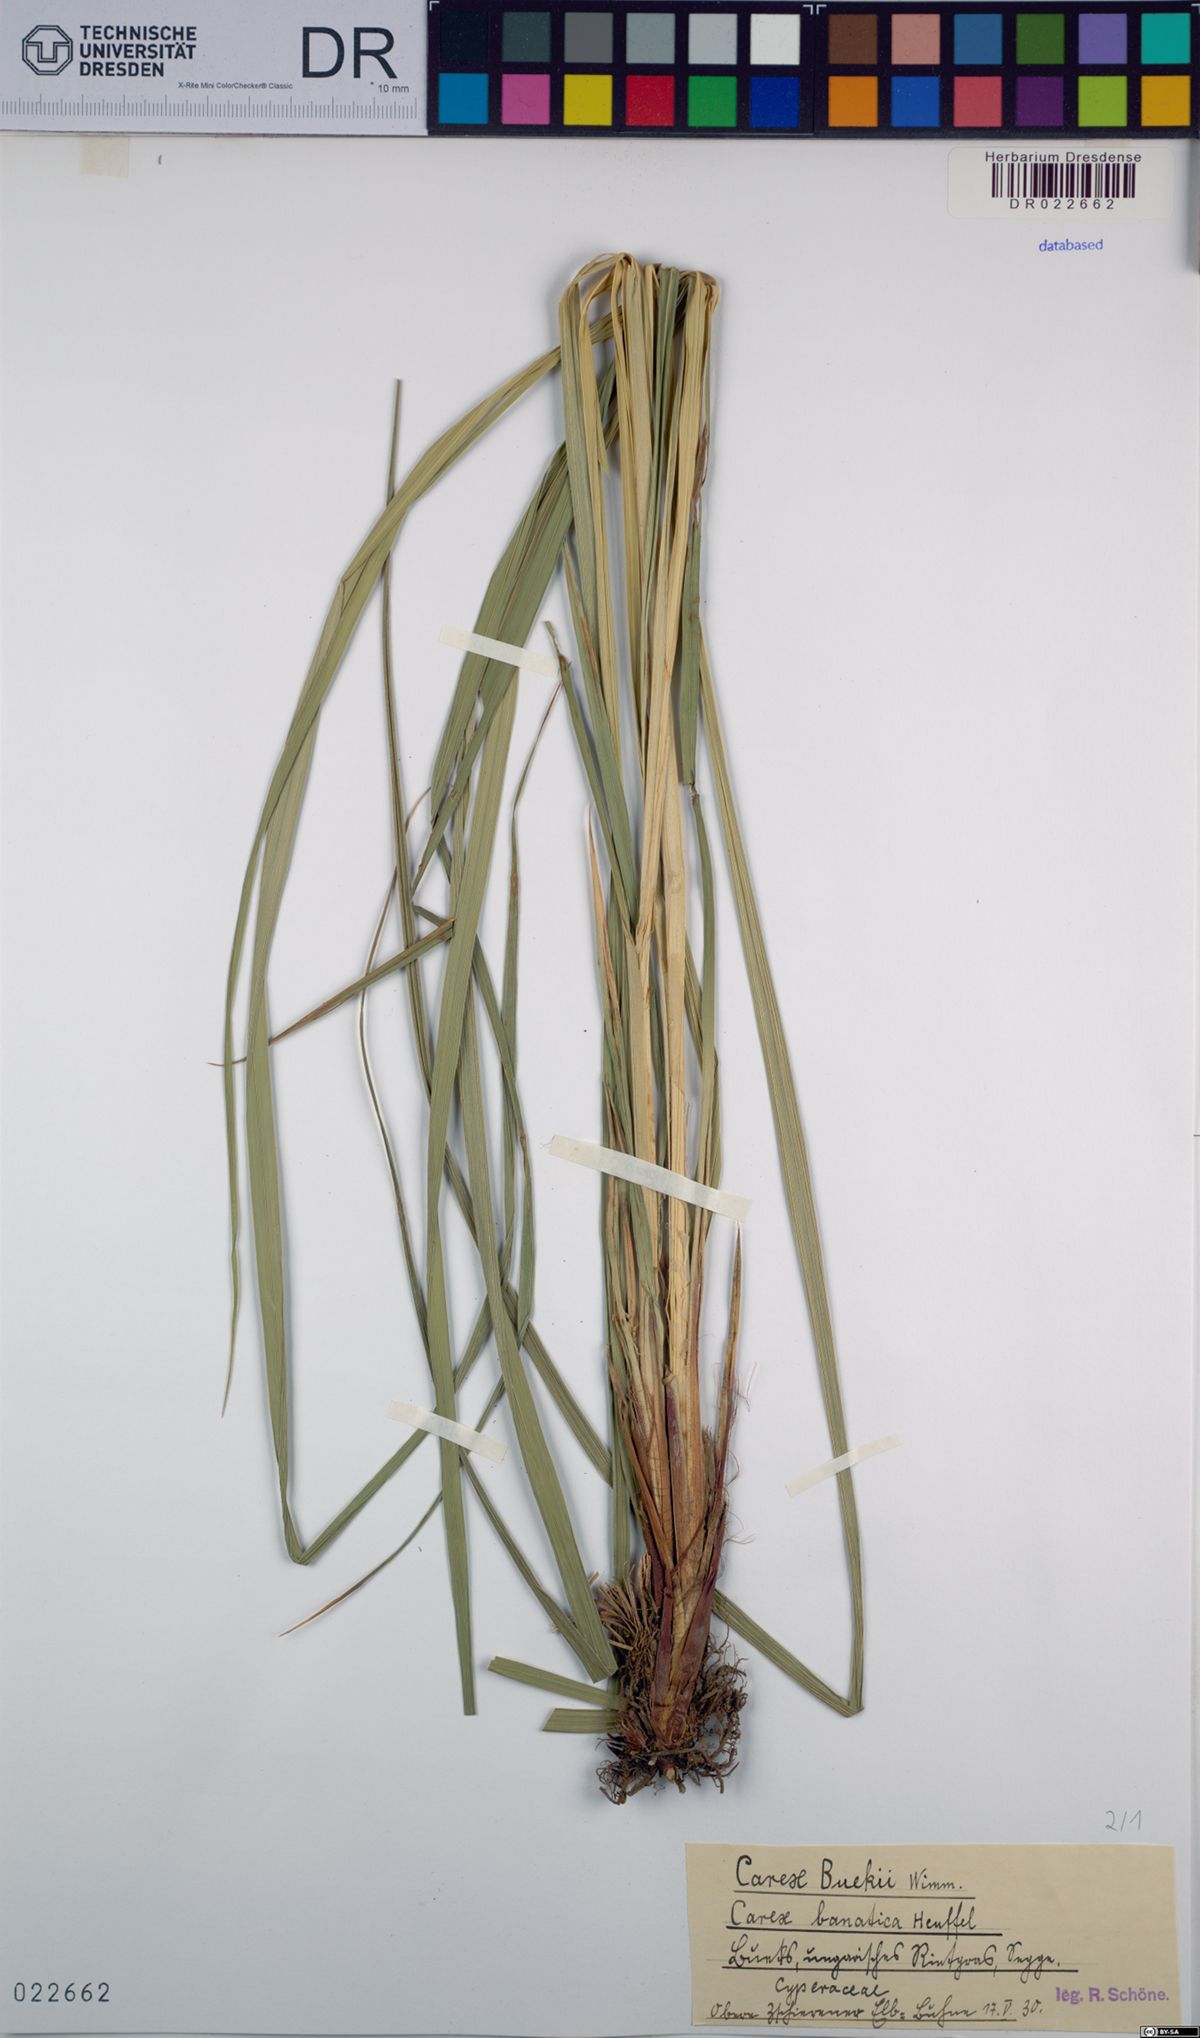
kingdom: Plantae
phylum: Tracheophyta
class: Liliopsida
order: Poales
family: Cyperaceae
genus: Carex
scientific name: Carex buekii
